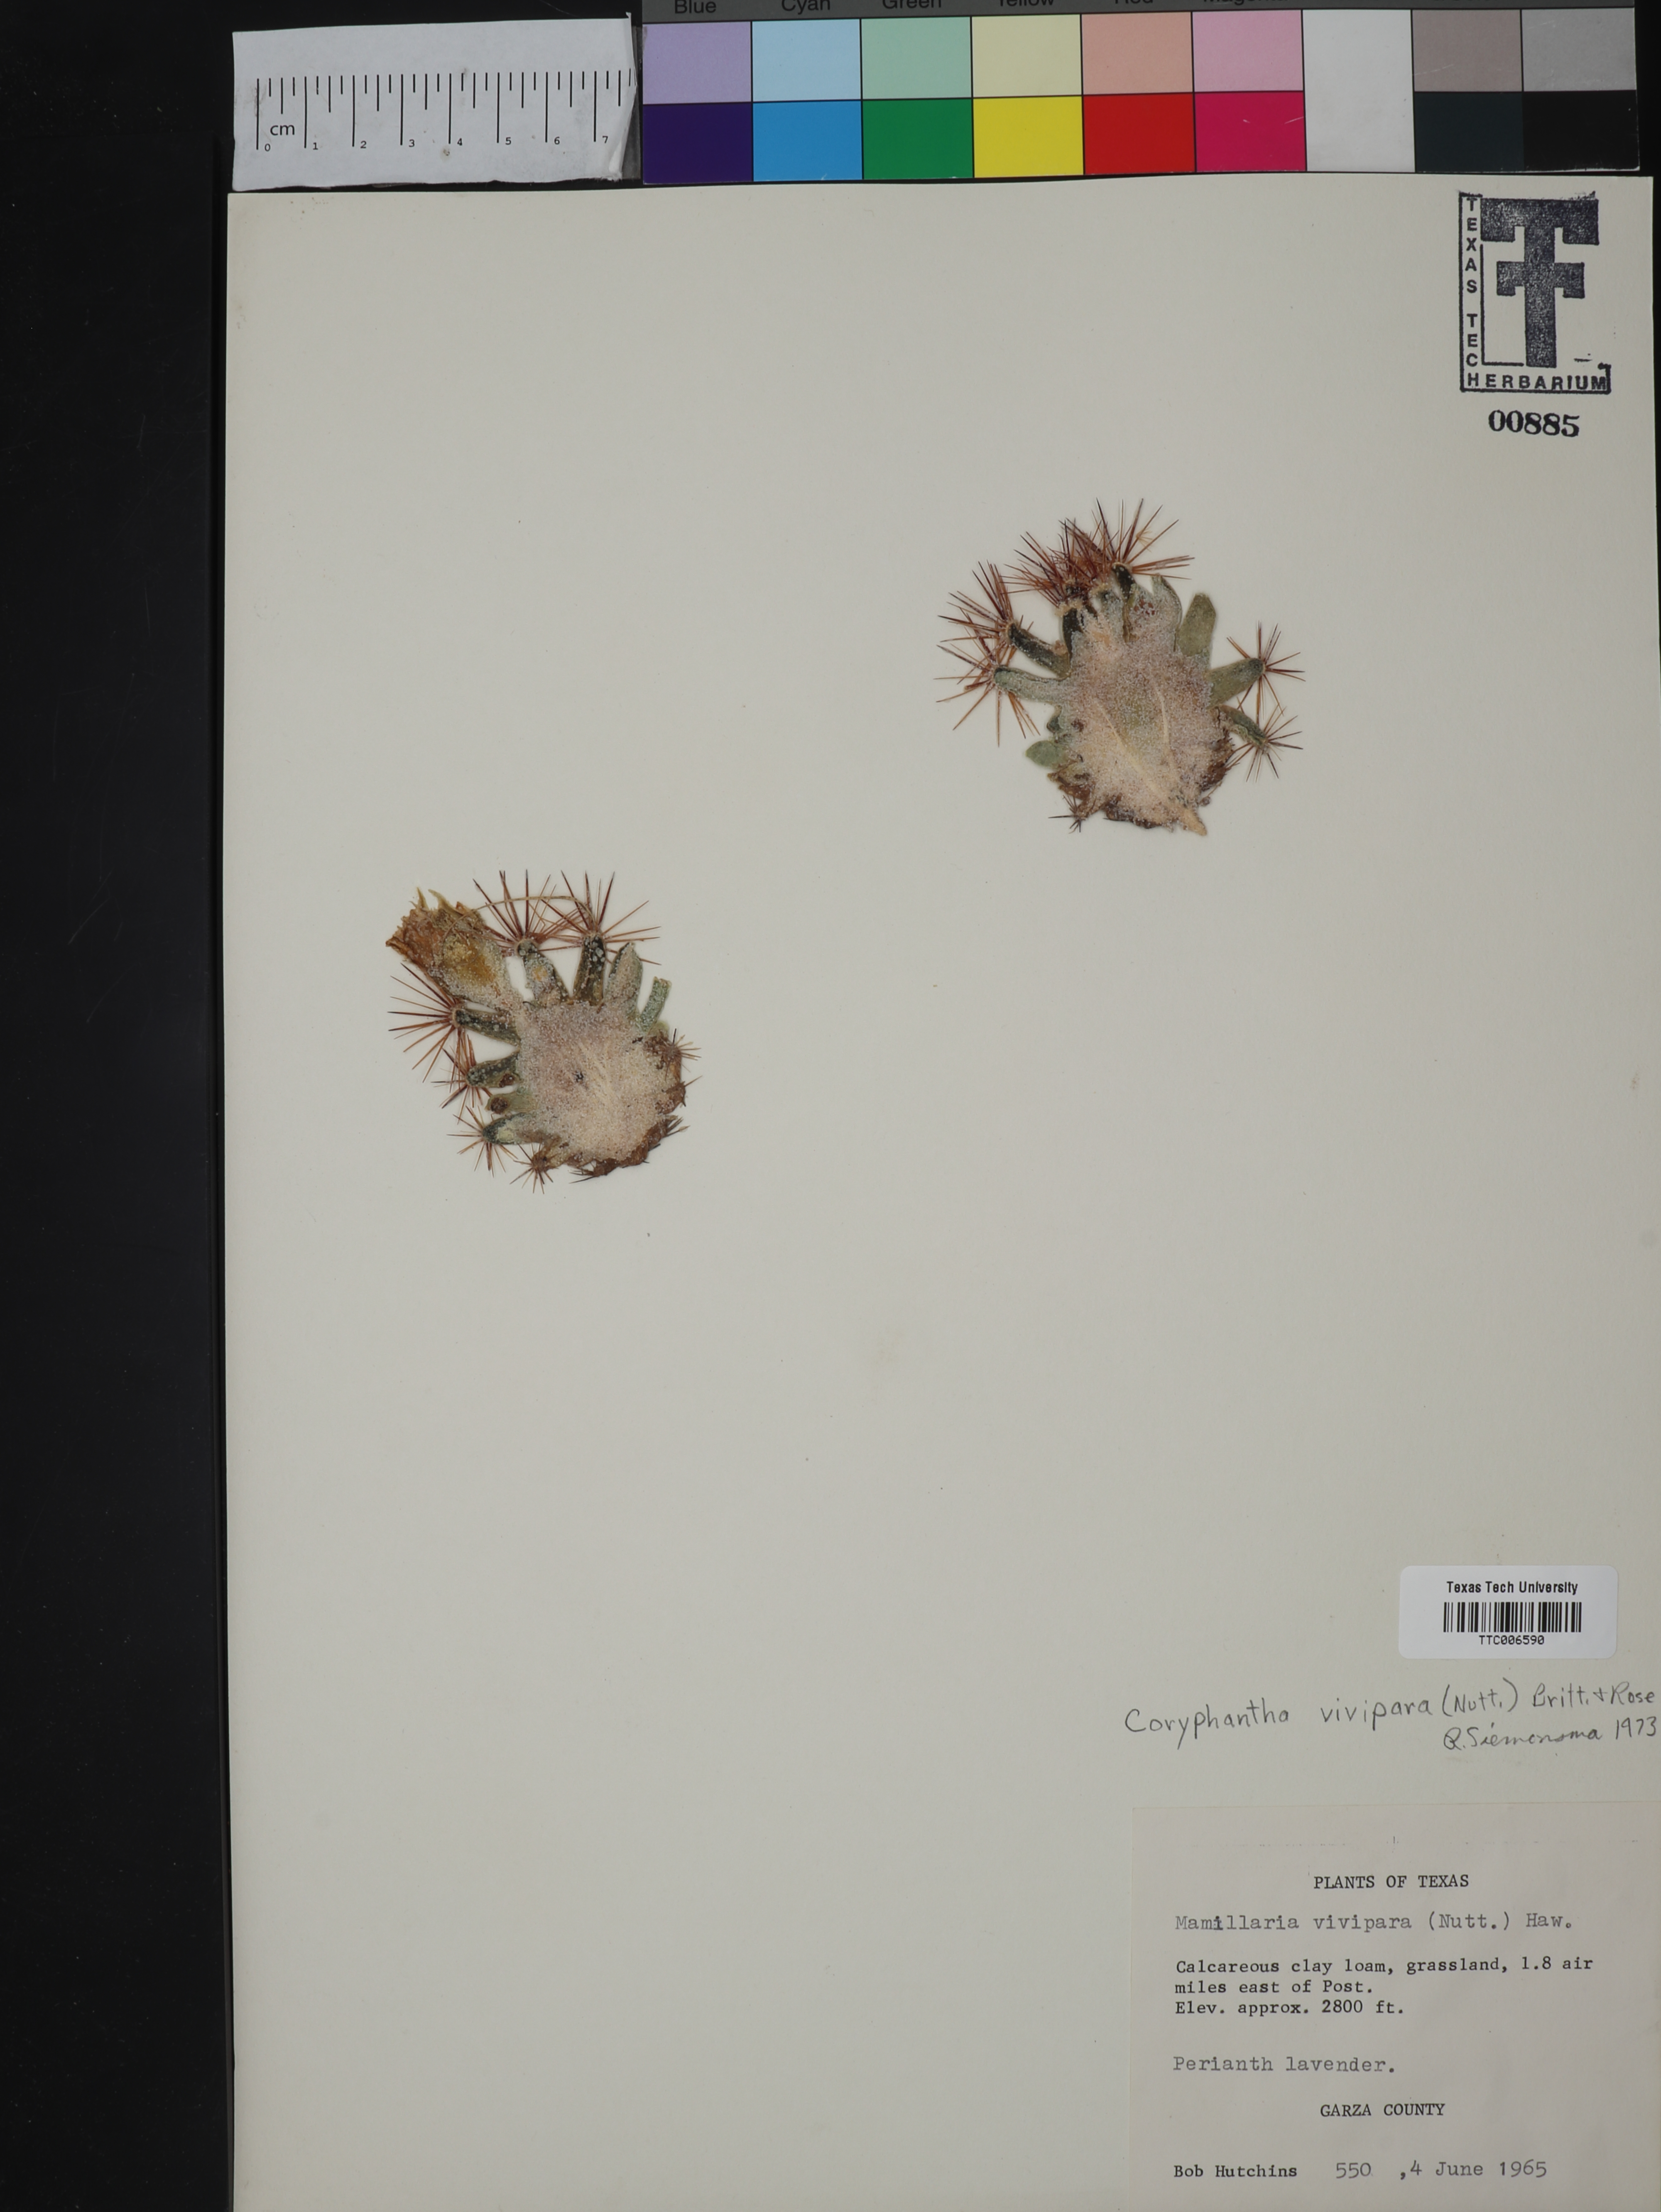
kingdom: Plantae
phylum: Tracheophyta
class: Magnoliopsida
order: Caryophyllales
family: Cactaceae
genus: Pelecyphora
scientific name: Pelecyphora vivipara
